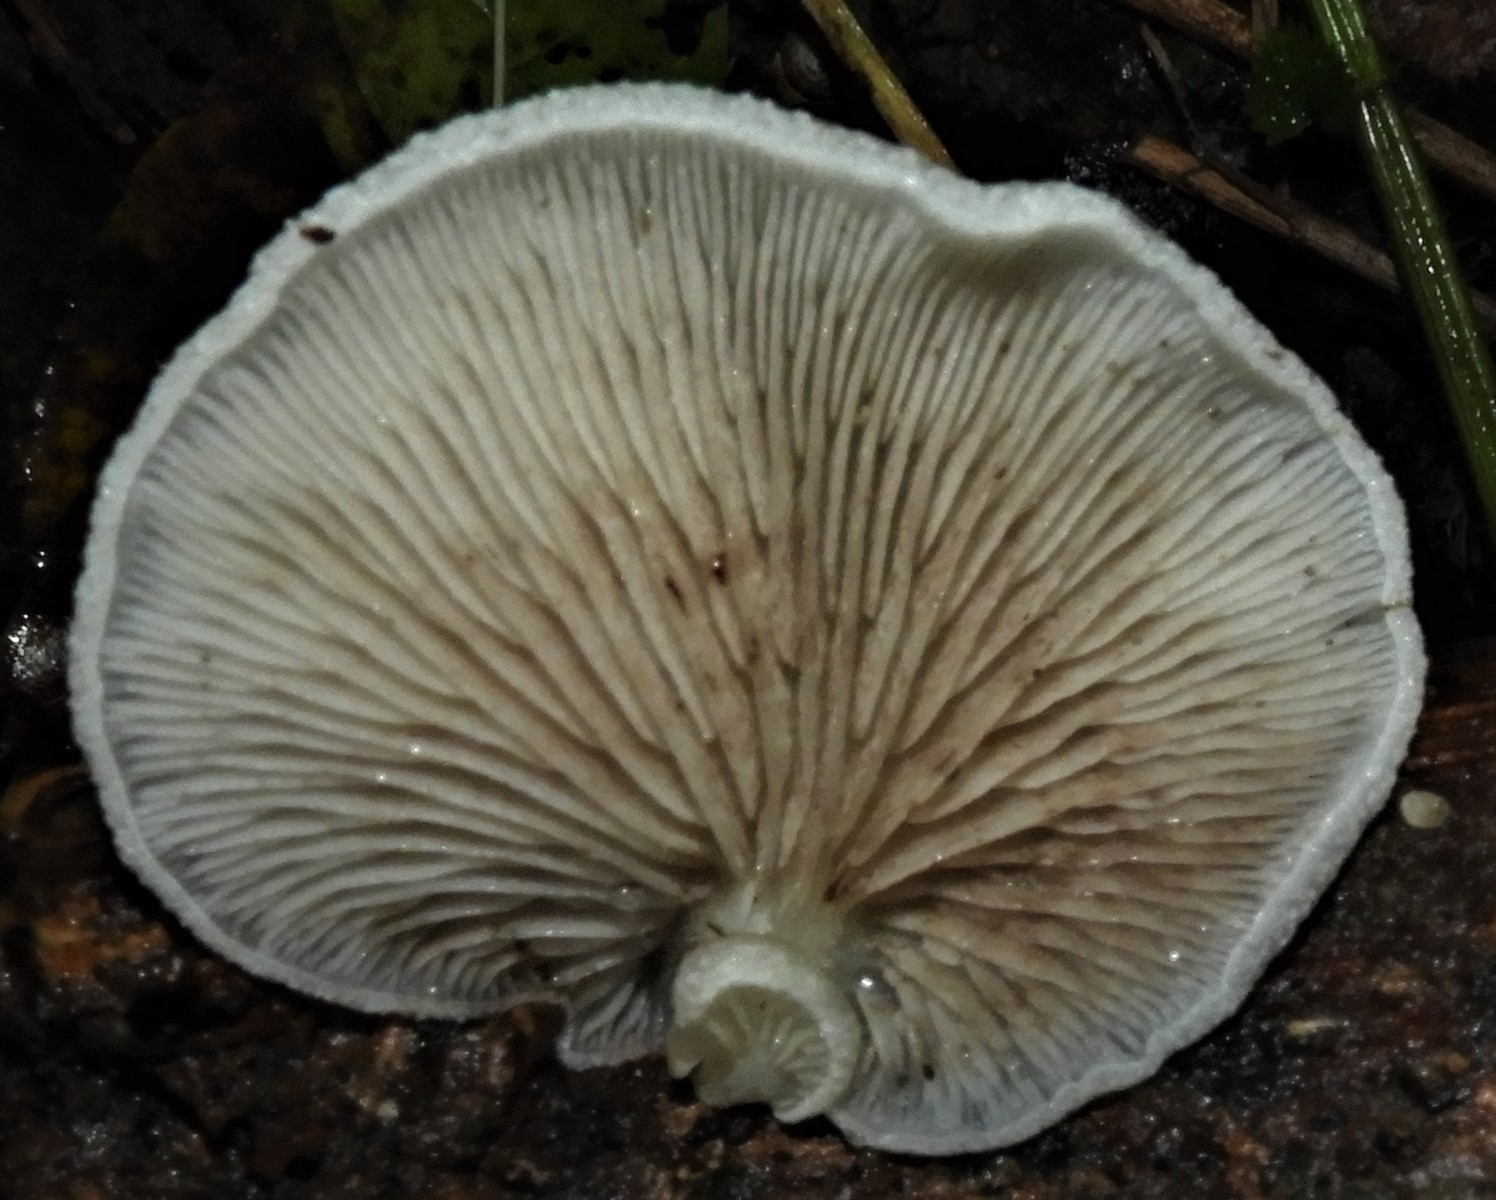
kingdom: Fungi
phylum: Basidiomycota
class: Agaricomycetes
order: Agaricales
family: Crepidotaceae
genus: Crepidotus
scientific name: Crepidotus mollis
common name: blød muslingesvamp
